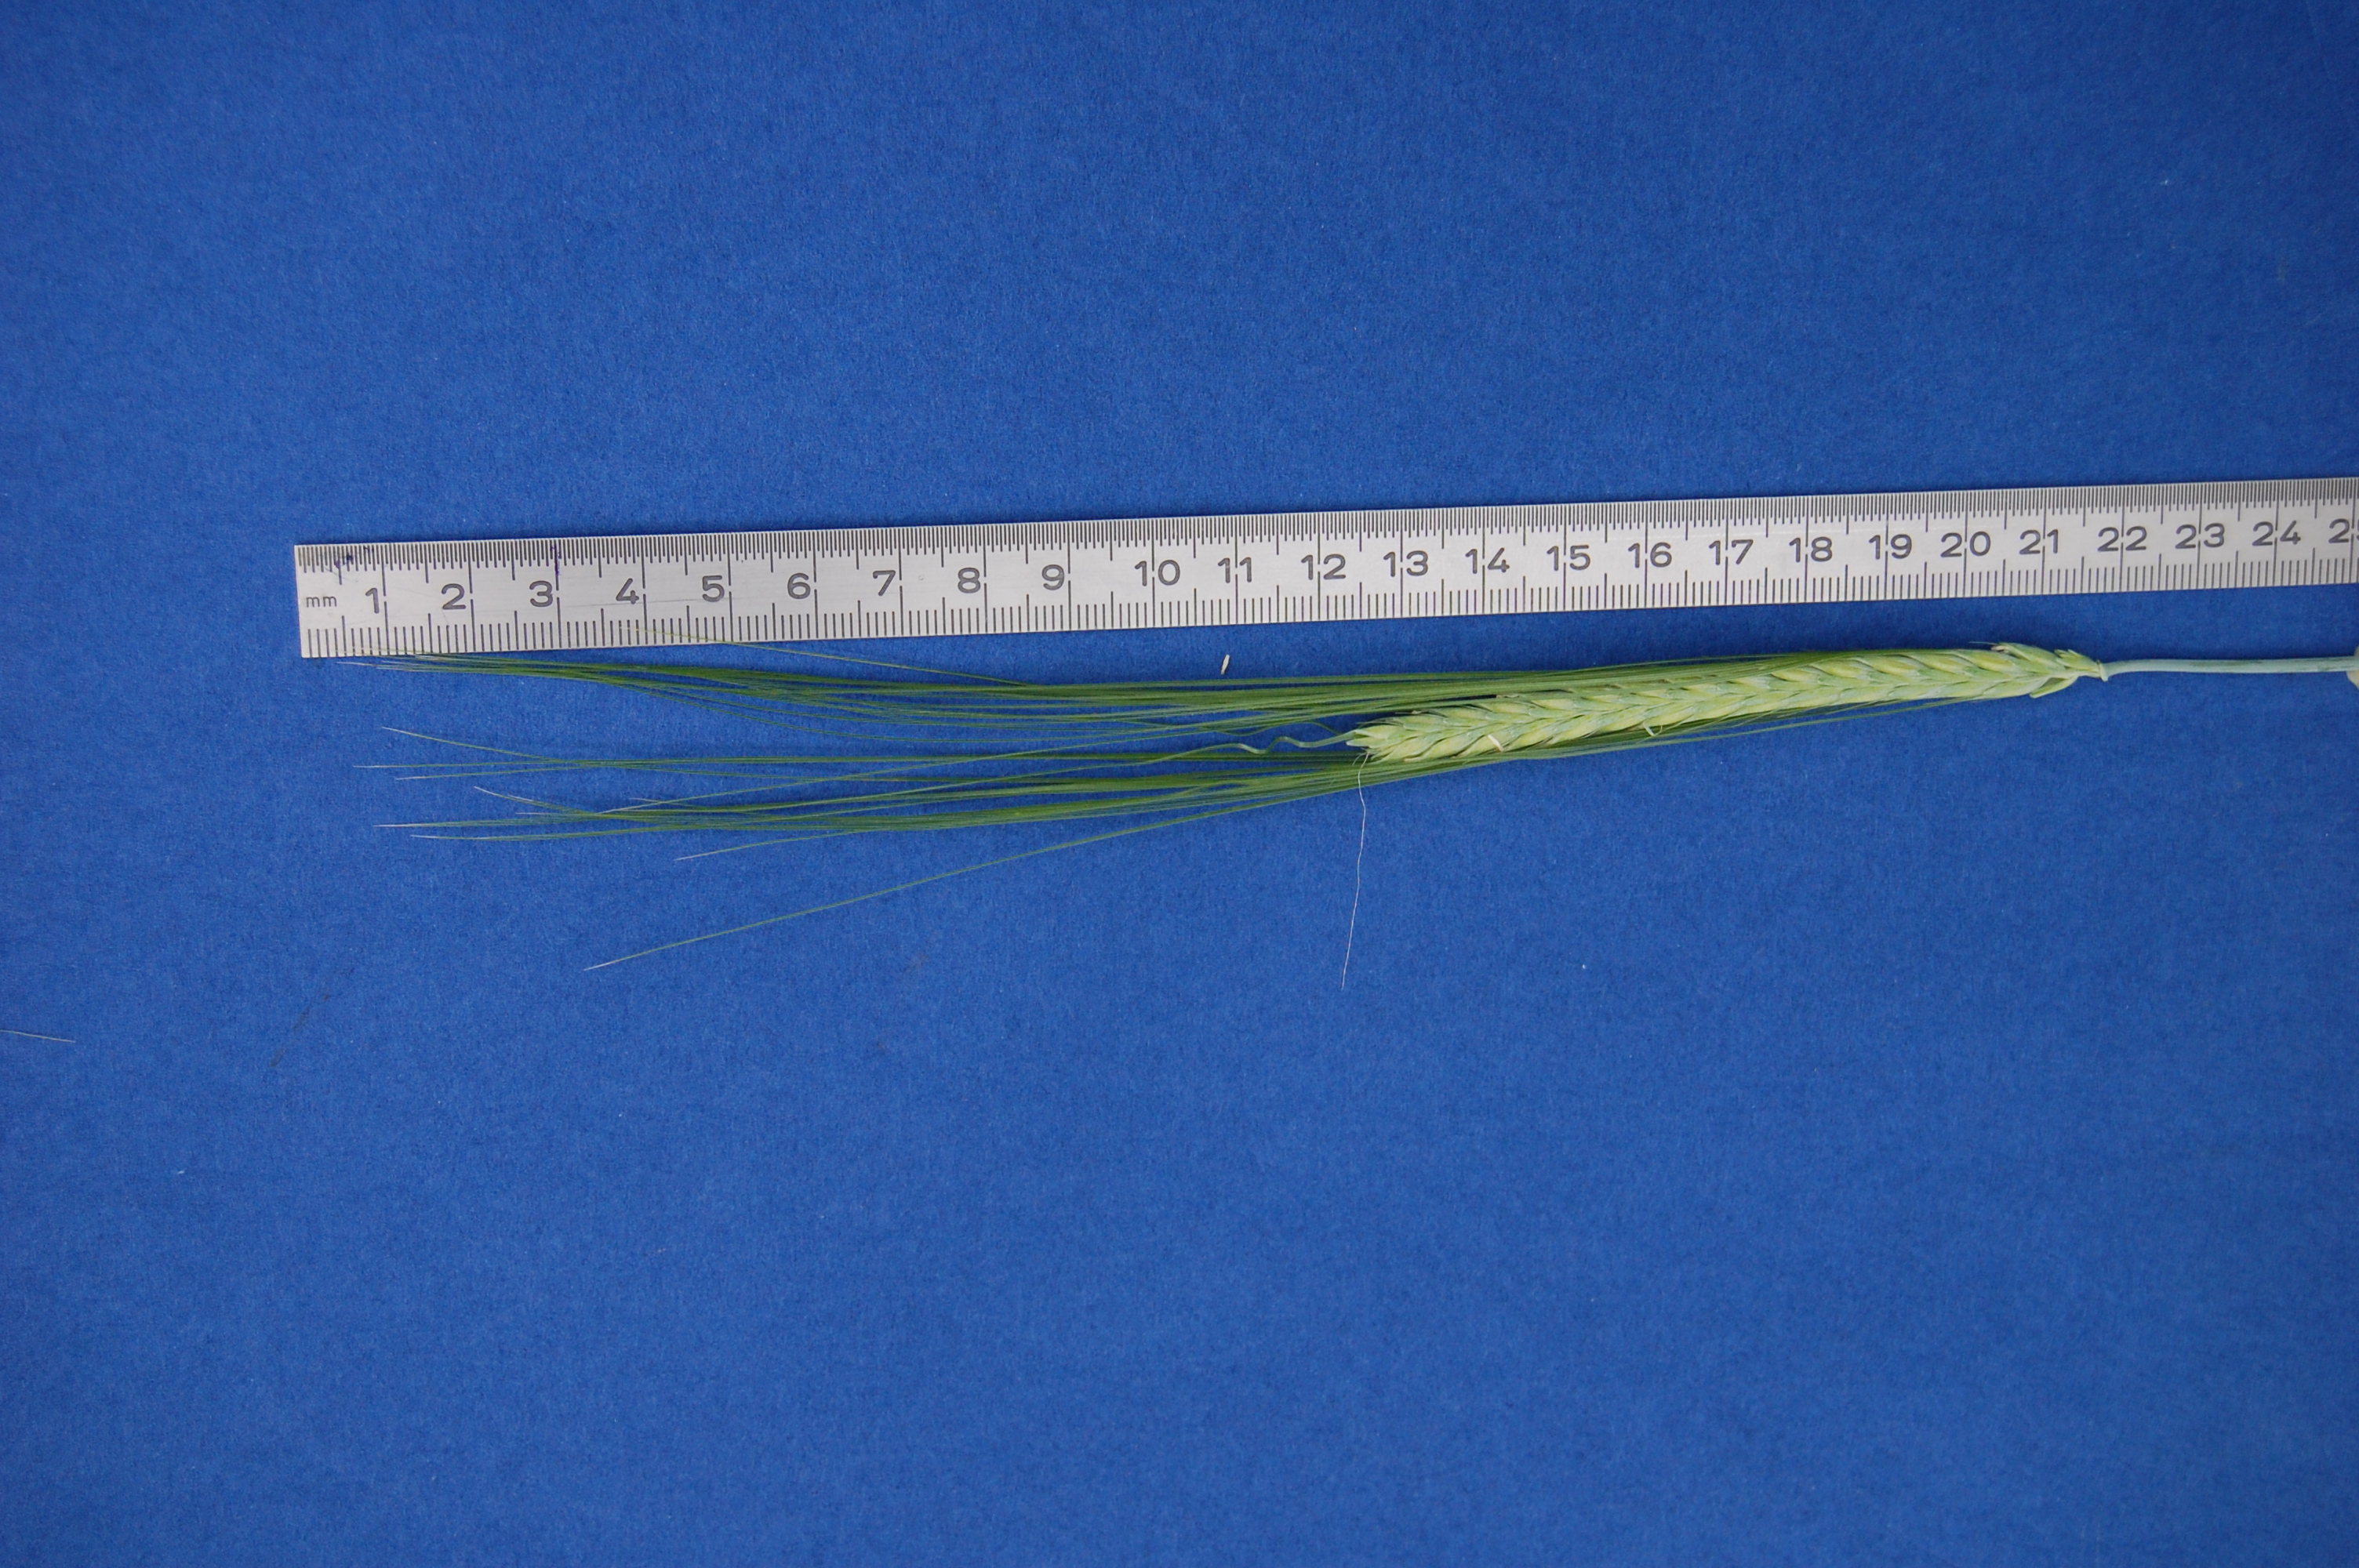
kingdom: Plantae
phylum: Tracheophyta
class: Liliopsida
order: Poales
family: Poaceae
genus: Hordeum
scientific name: Hordeum vulgare
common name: Common barley
